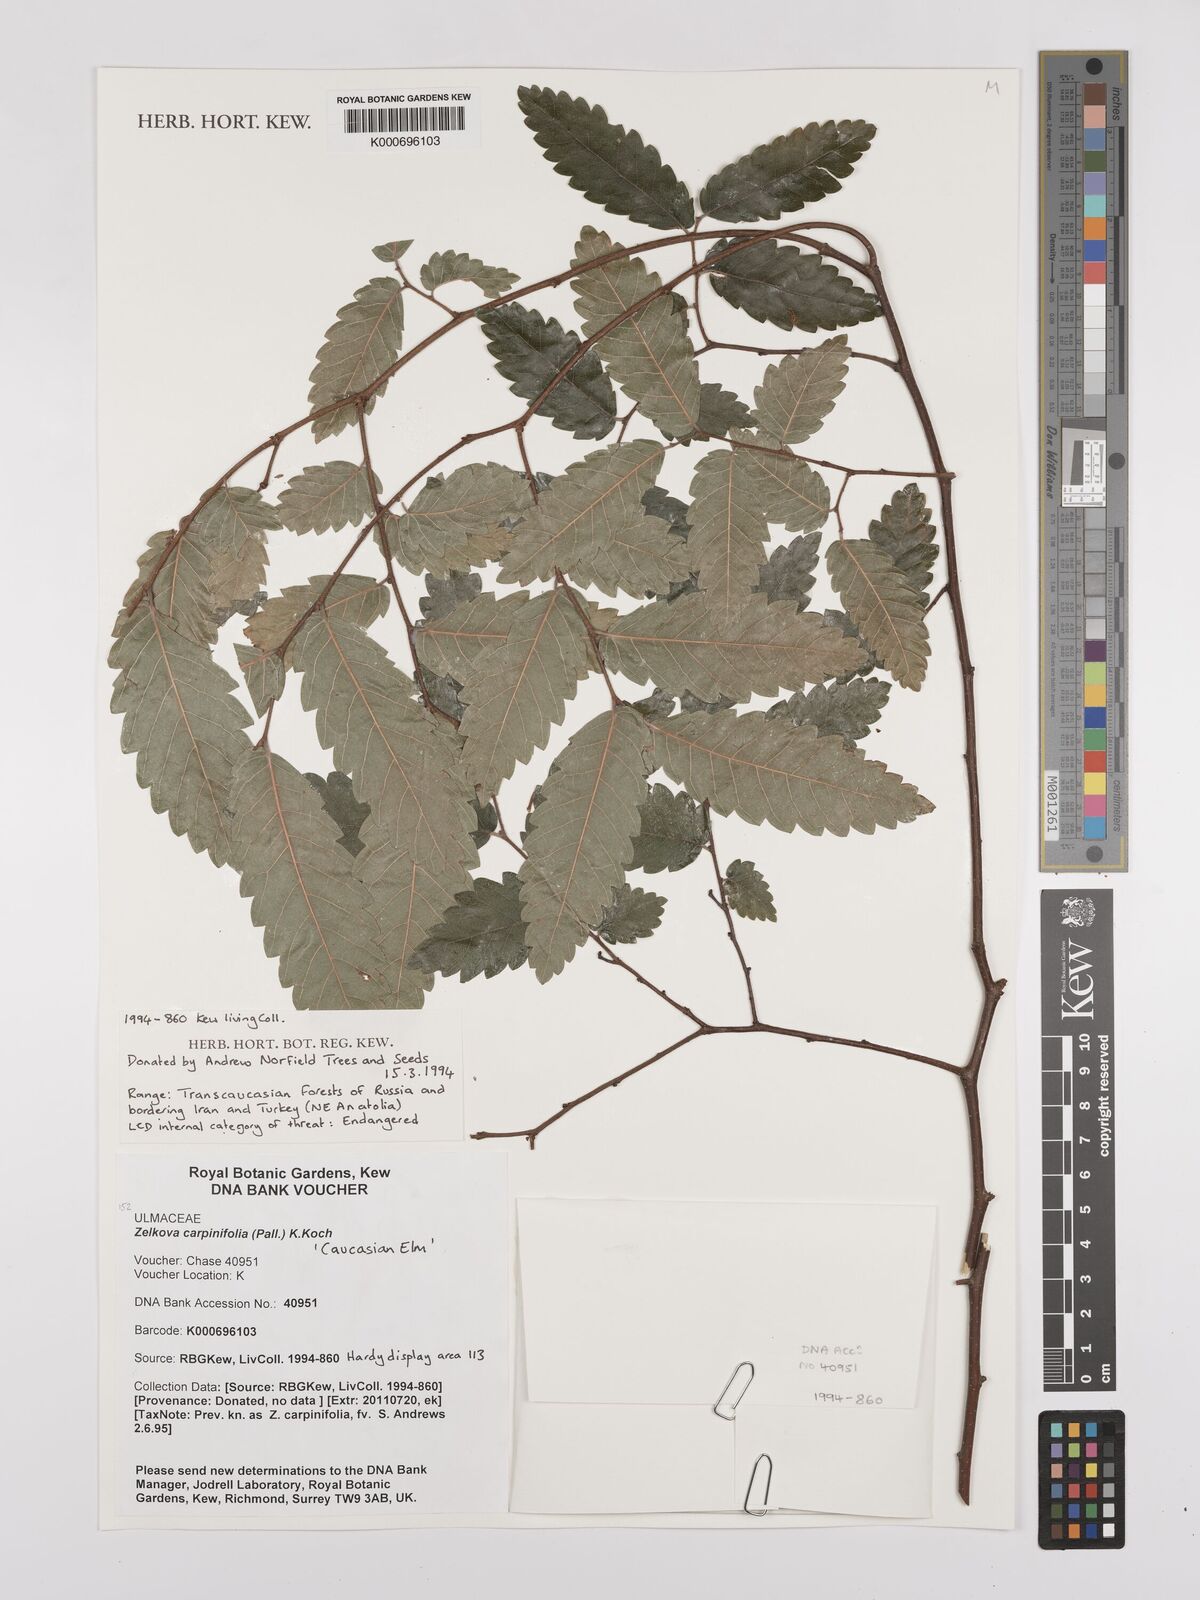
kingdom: Plantae
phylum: Tracheophyta
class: Magnoliopsida
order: Rosales
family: Ulmaceae
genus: Zelkova
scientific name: Zelkova carpinifolia
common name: Caucasian elm
